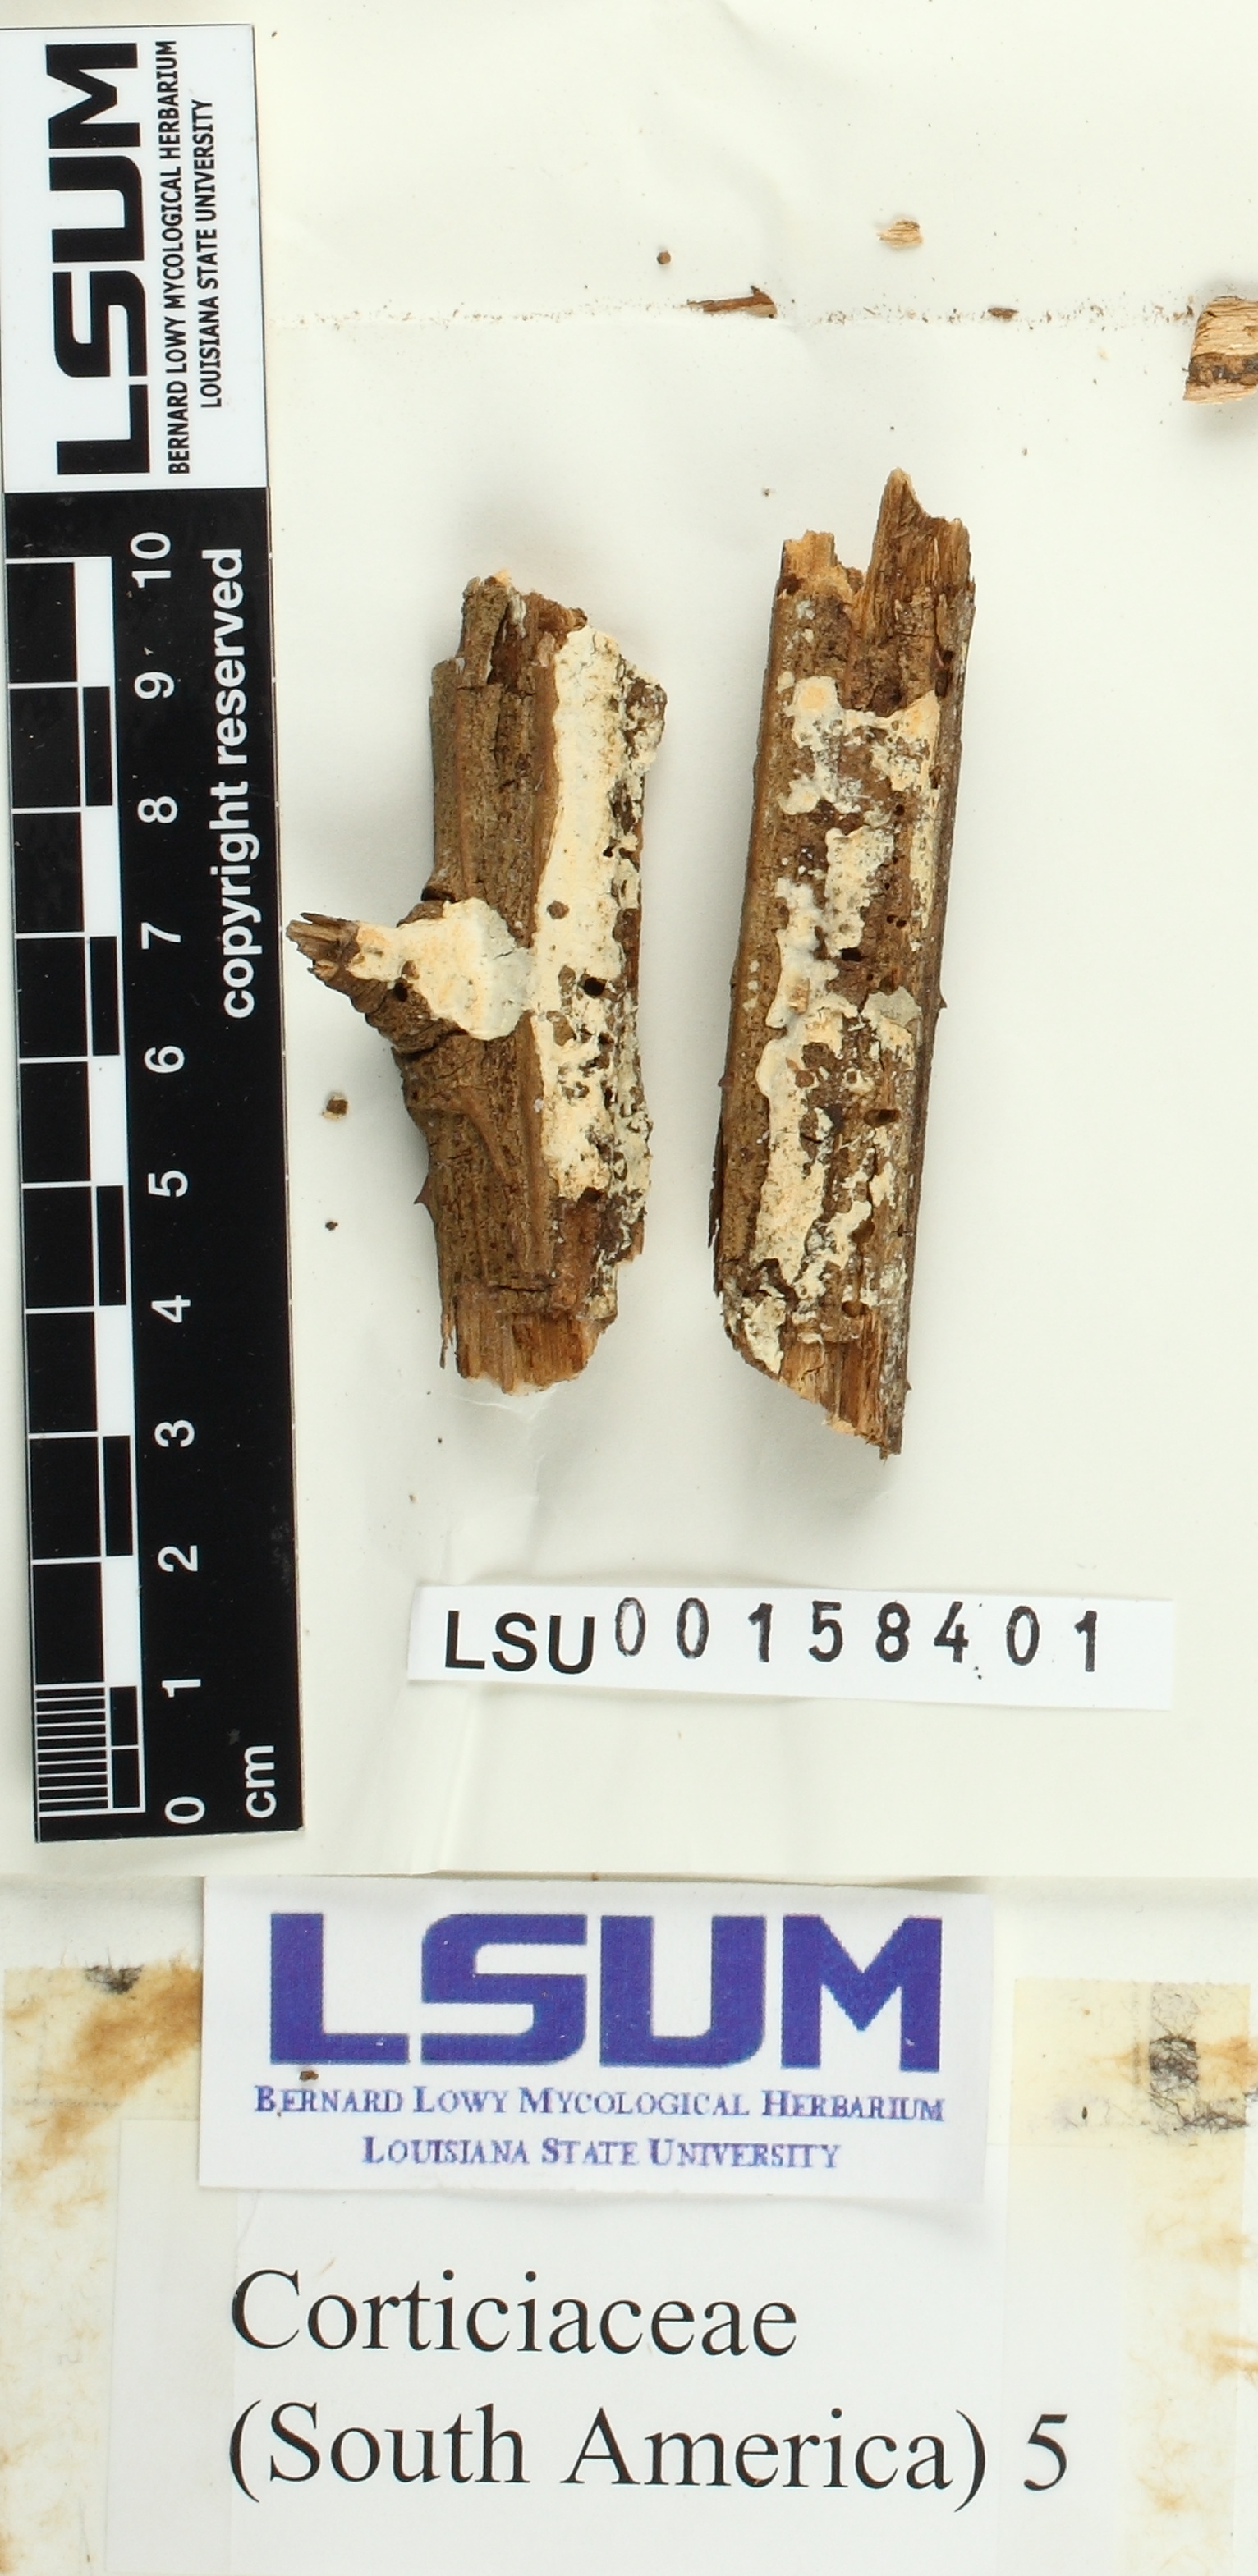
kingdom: Fungi
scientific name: Fungi
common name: Fungi
